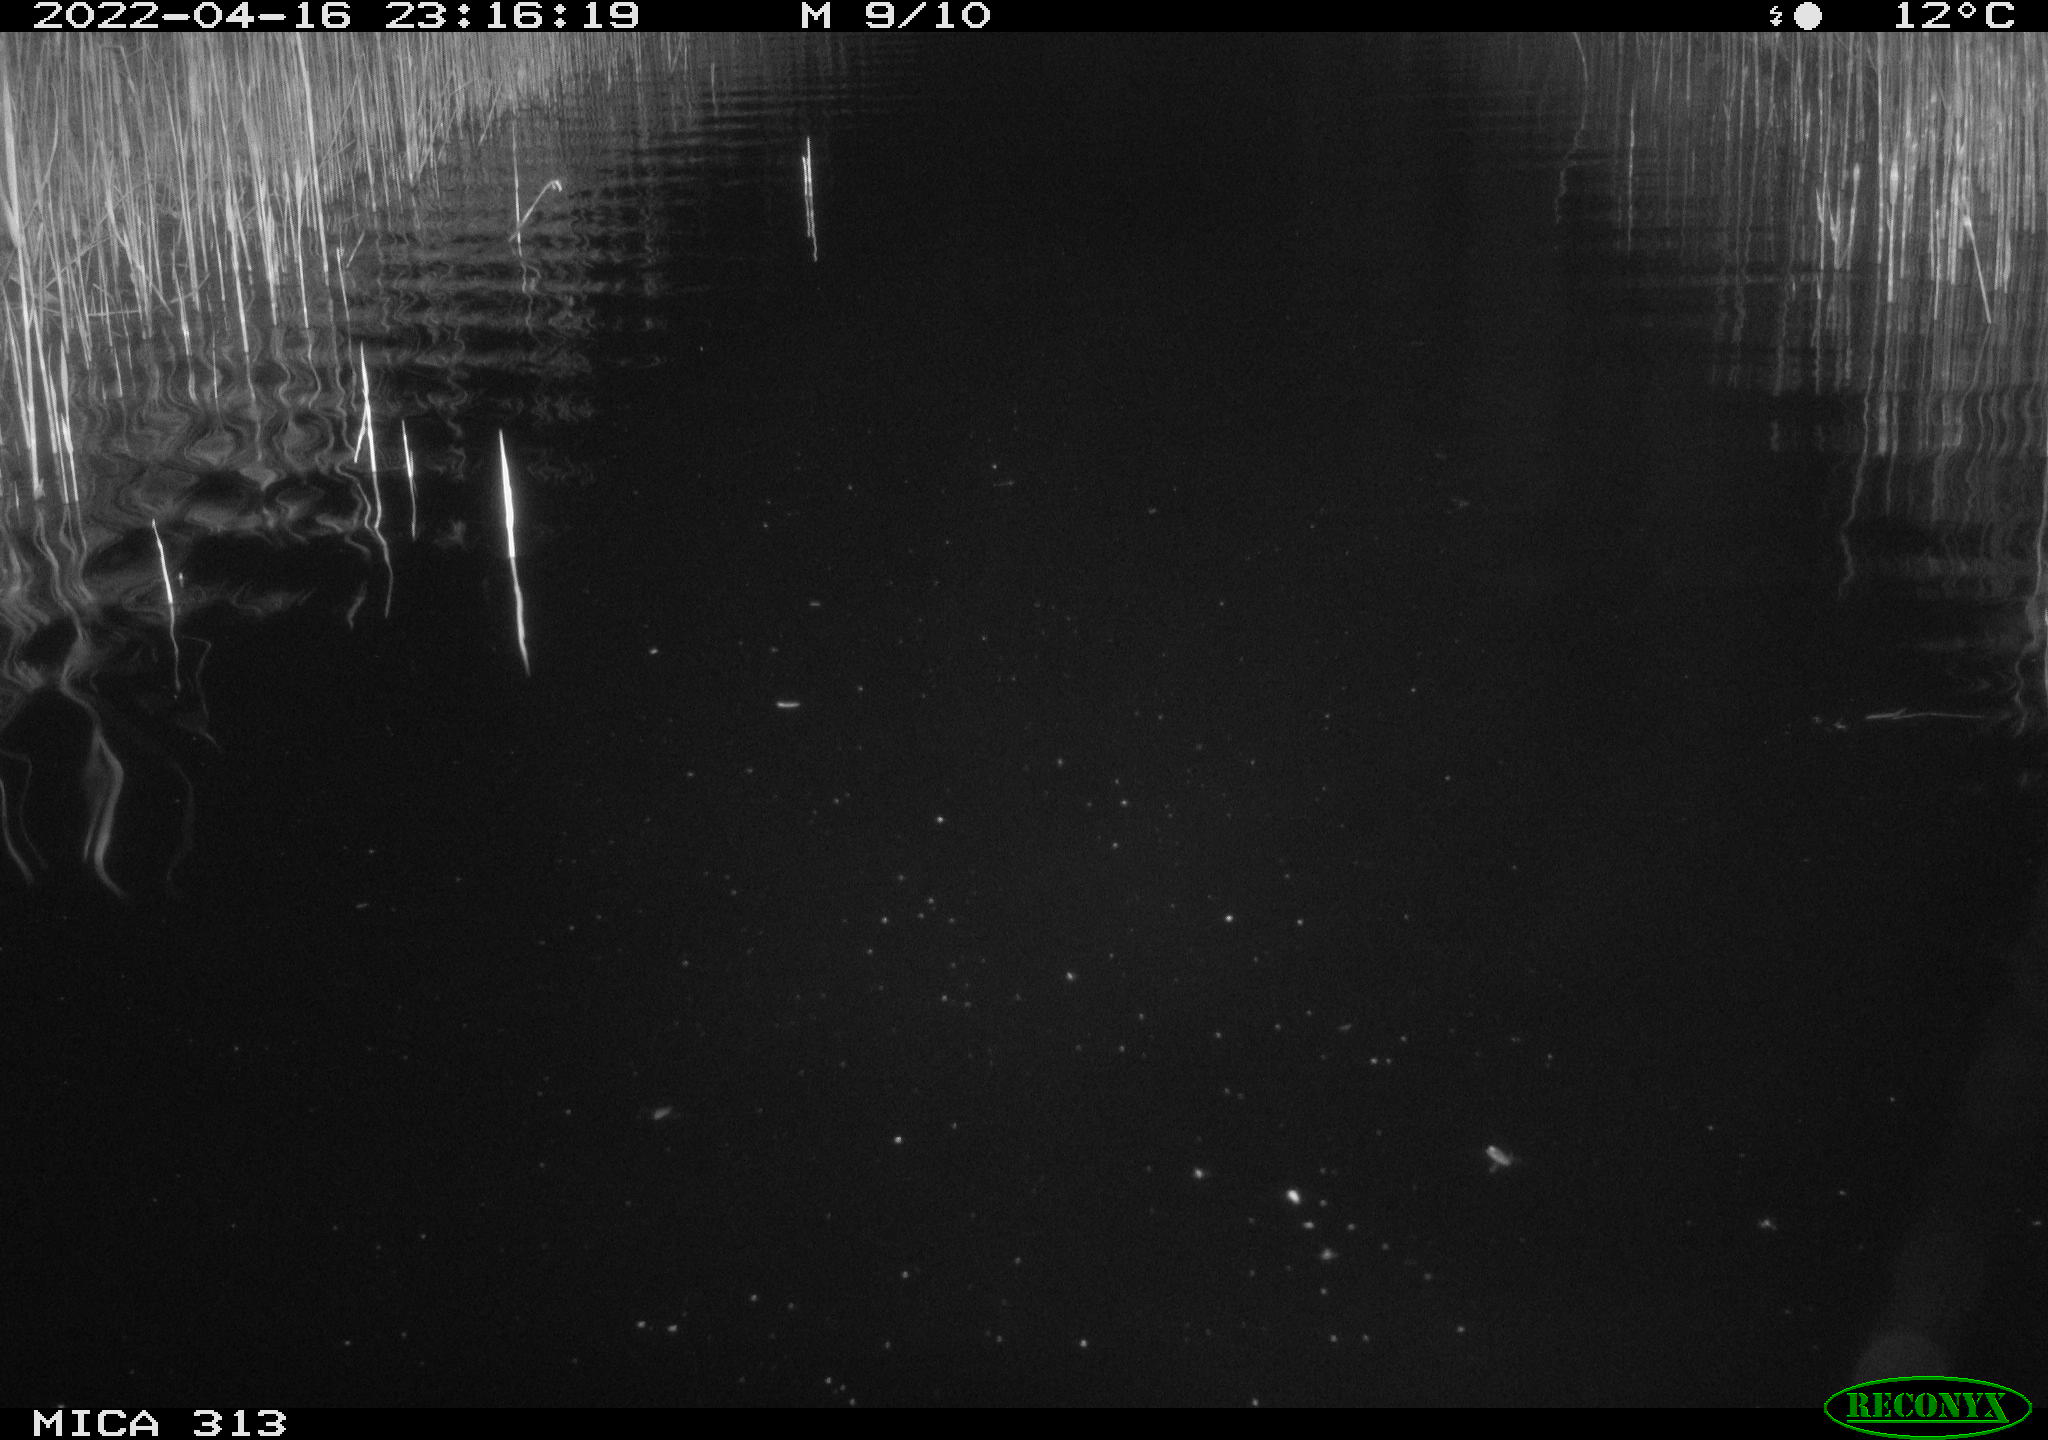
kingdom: Animalia
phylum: Chordata
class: Mammalia
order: Rodentia
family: Muridae
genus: Rattus
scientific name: Rattus norvegicus
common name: Brown rat
